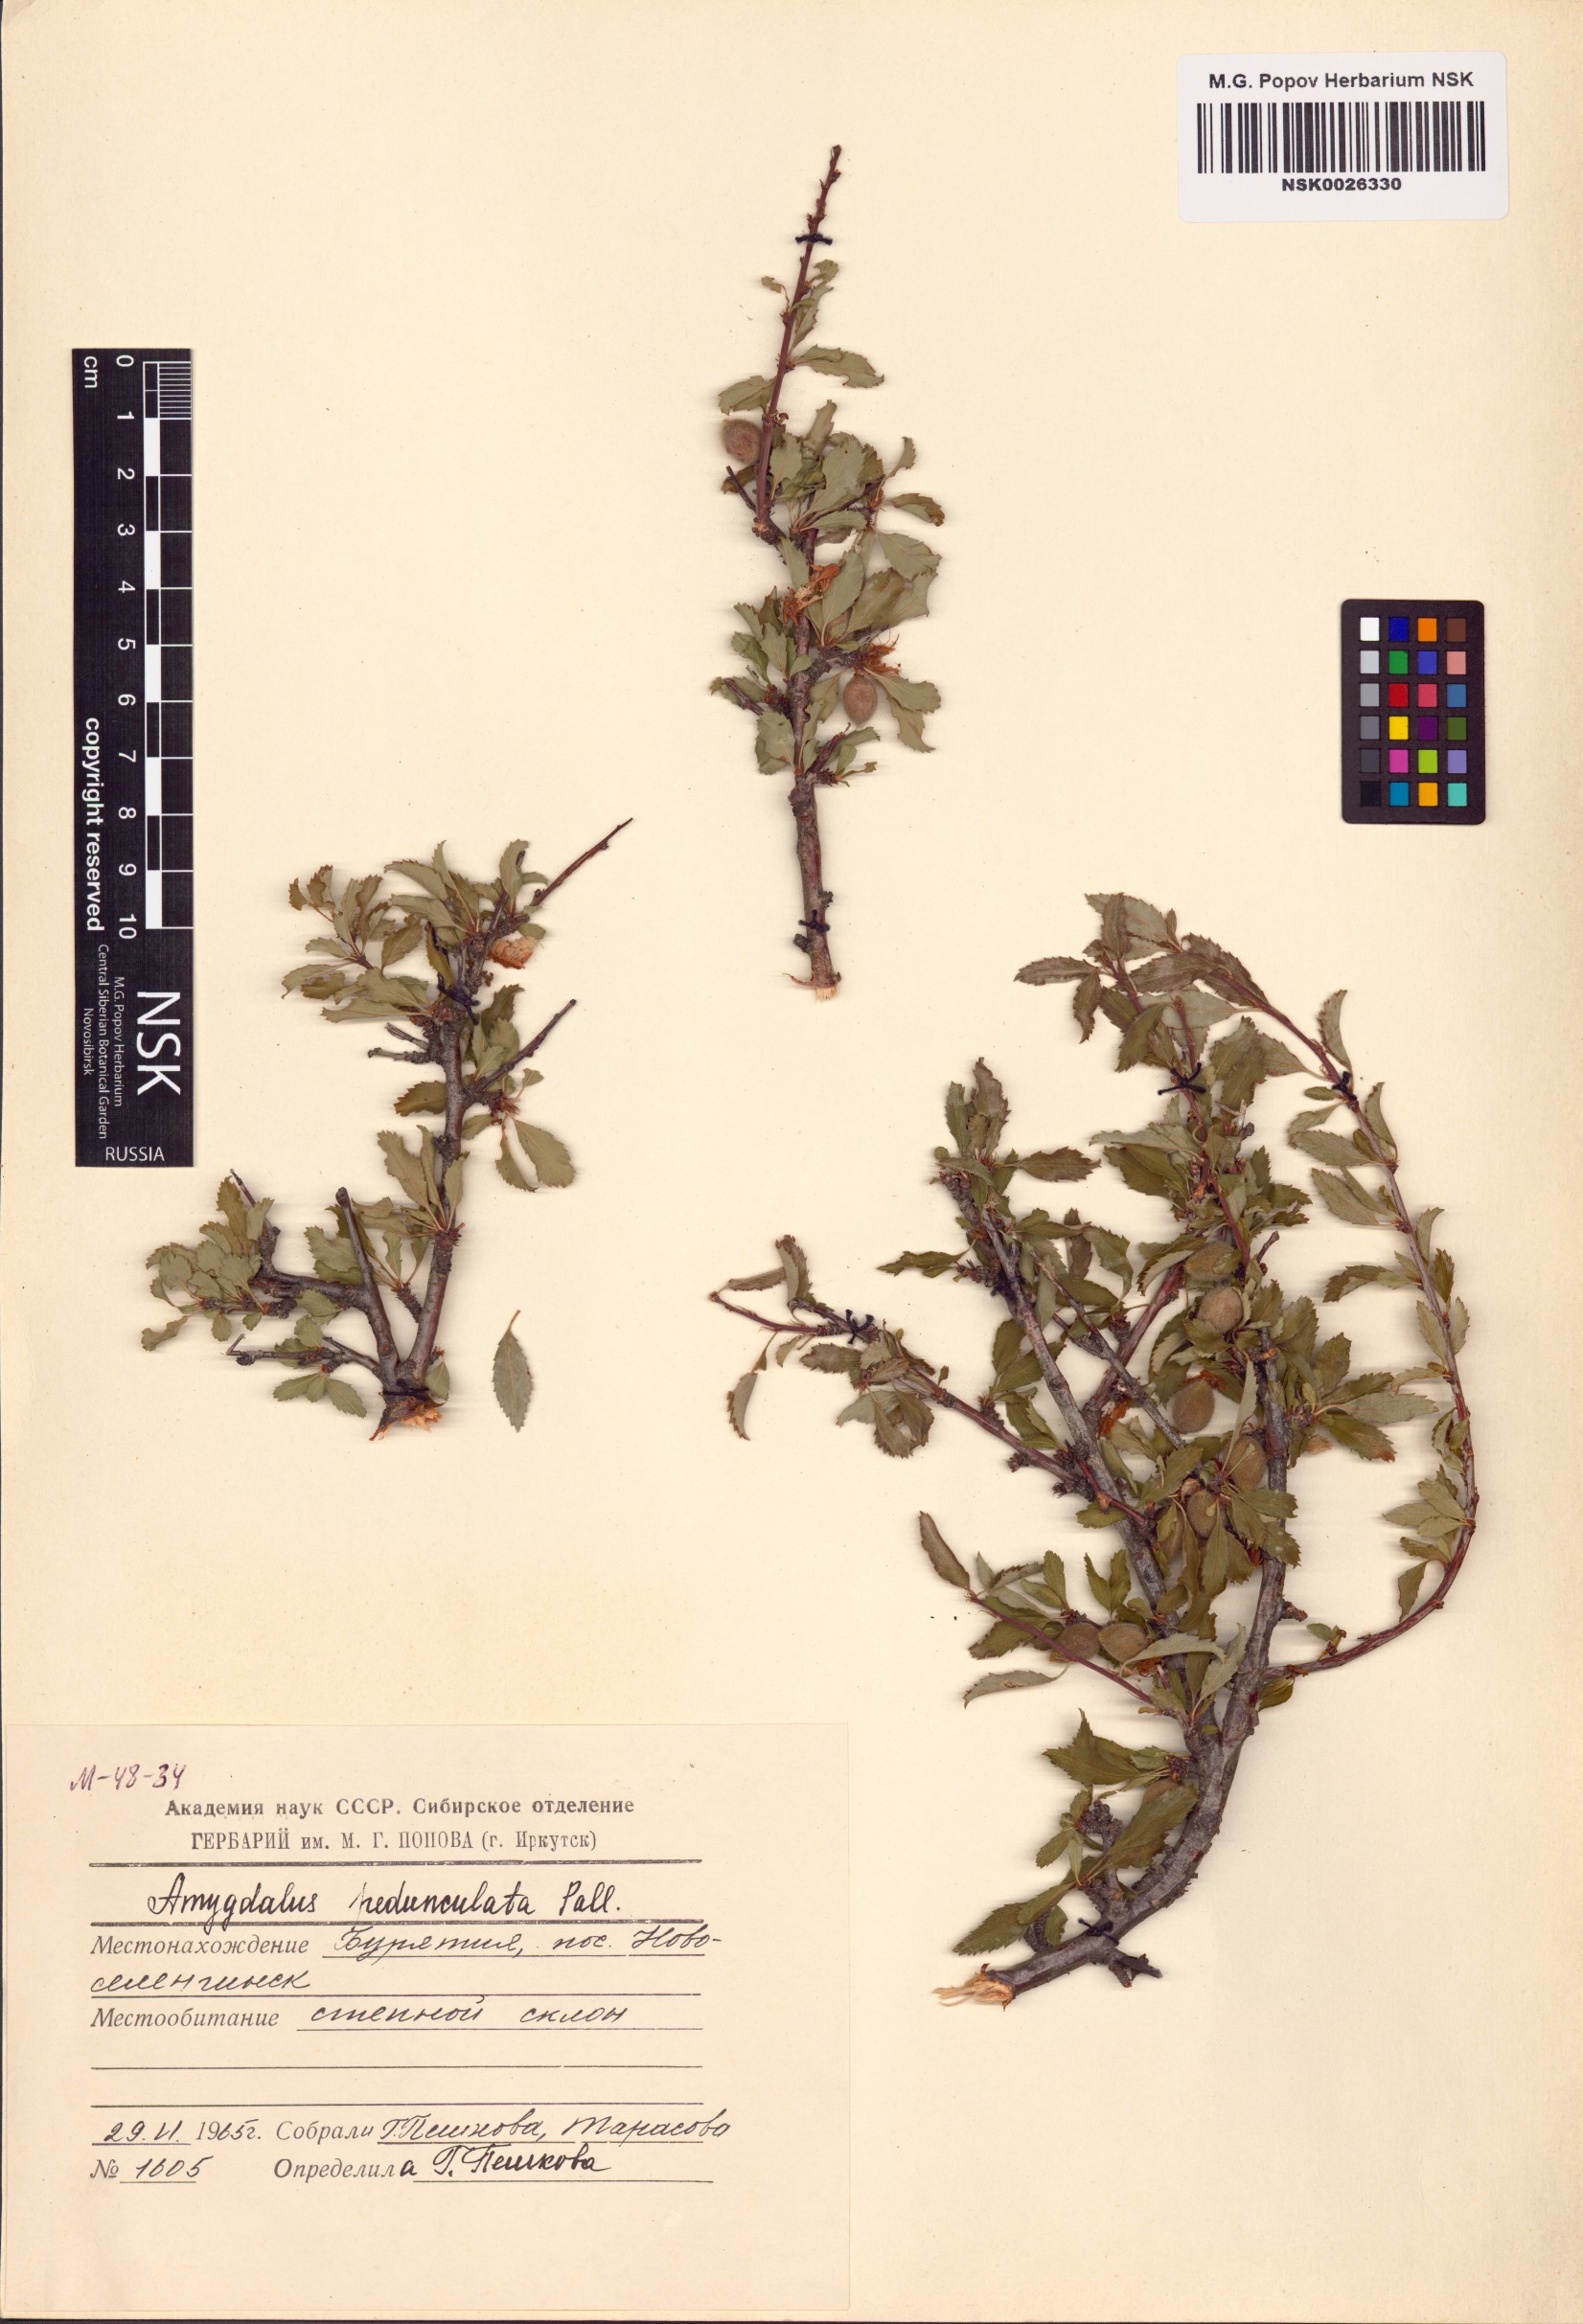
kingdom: Plantae
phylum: Tracheophyta
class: Magnoliopsida
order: Rosales
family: Rosaceae
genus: Prunus
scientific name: Prunus pedunculata
